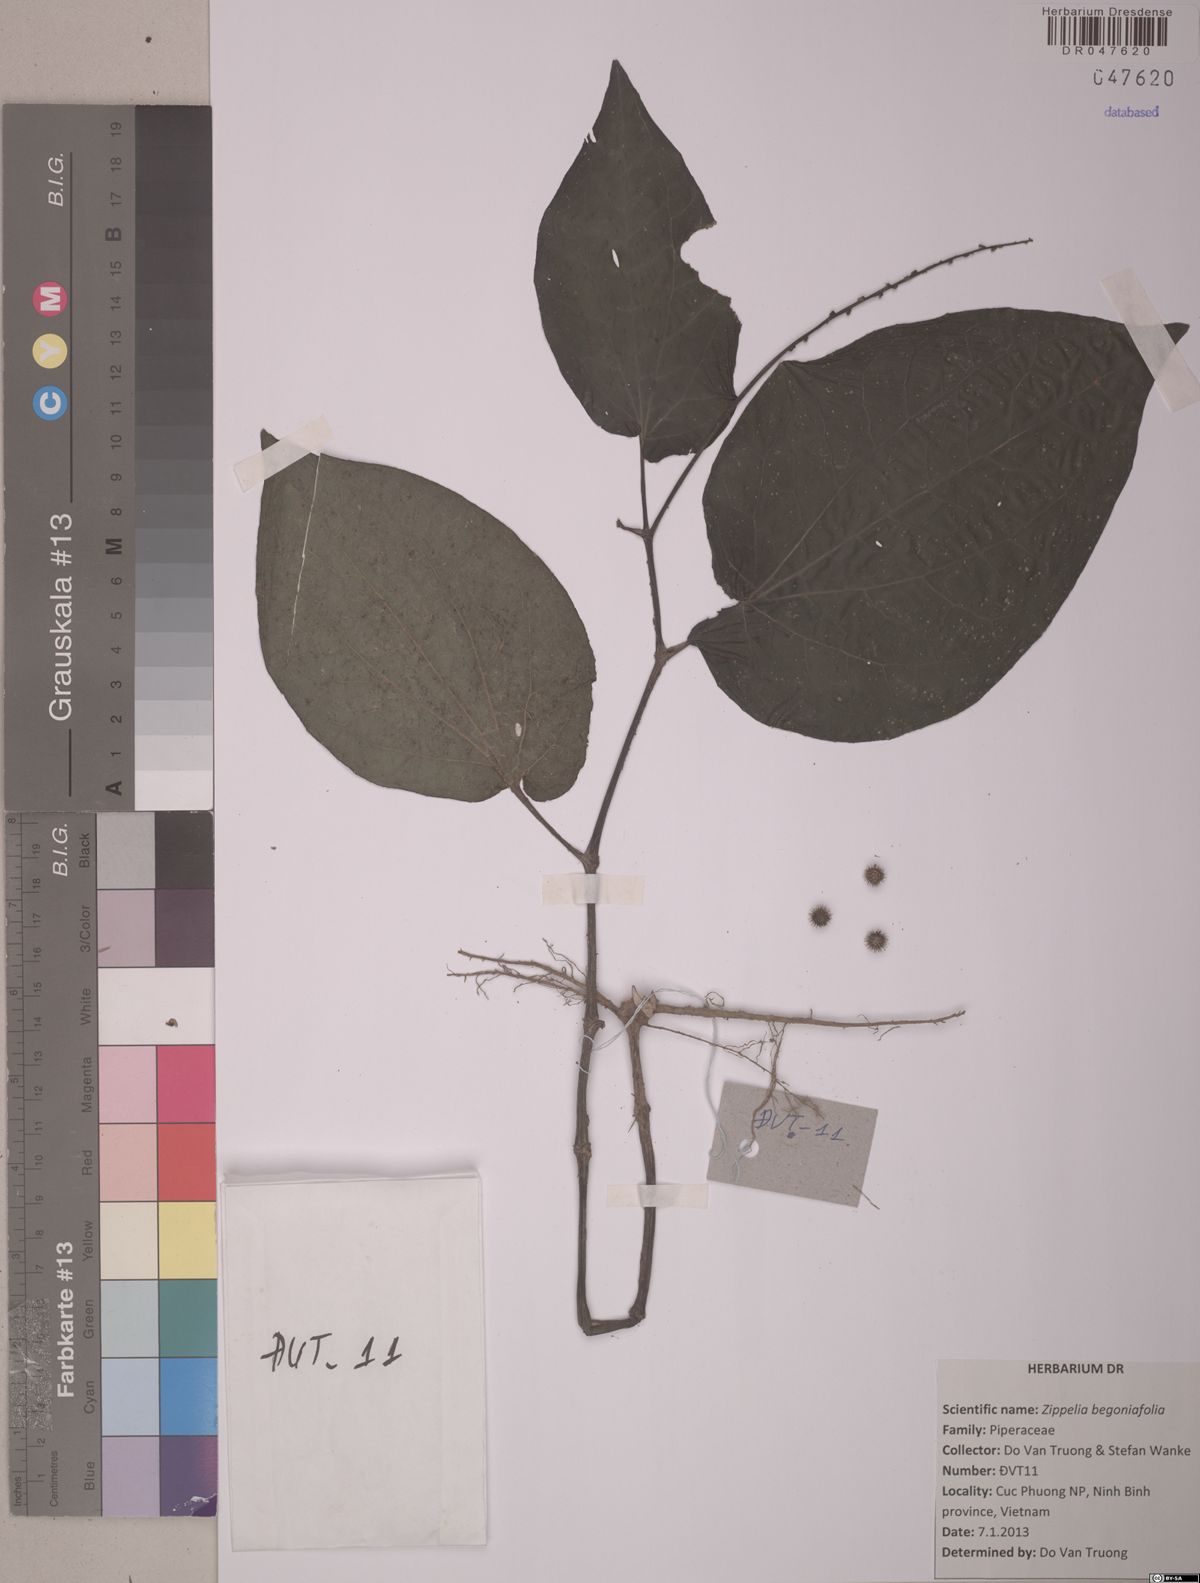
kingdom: Plantae
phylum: Tracheophyta
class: Magnoliopsida
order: Piperales
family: Piperaceae
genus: Zippelia
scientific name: Zippelia begoniifolia
